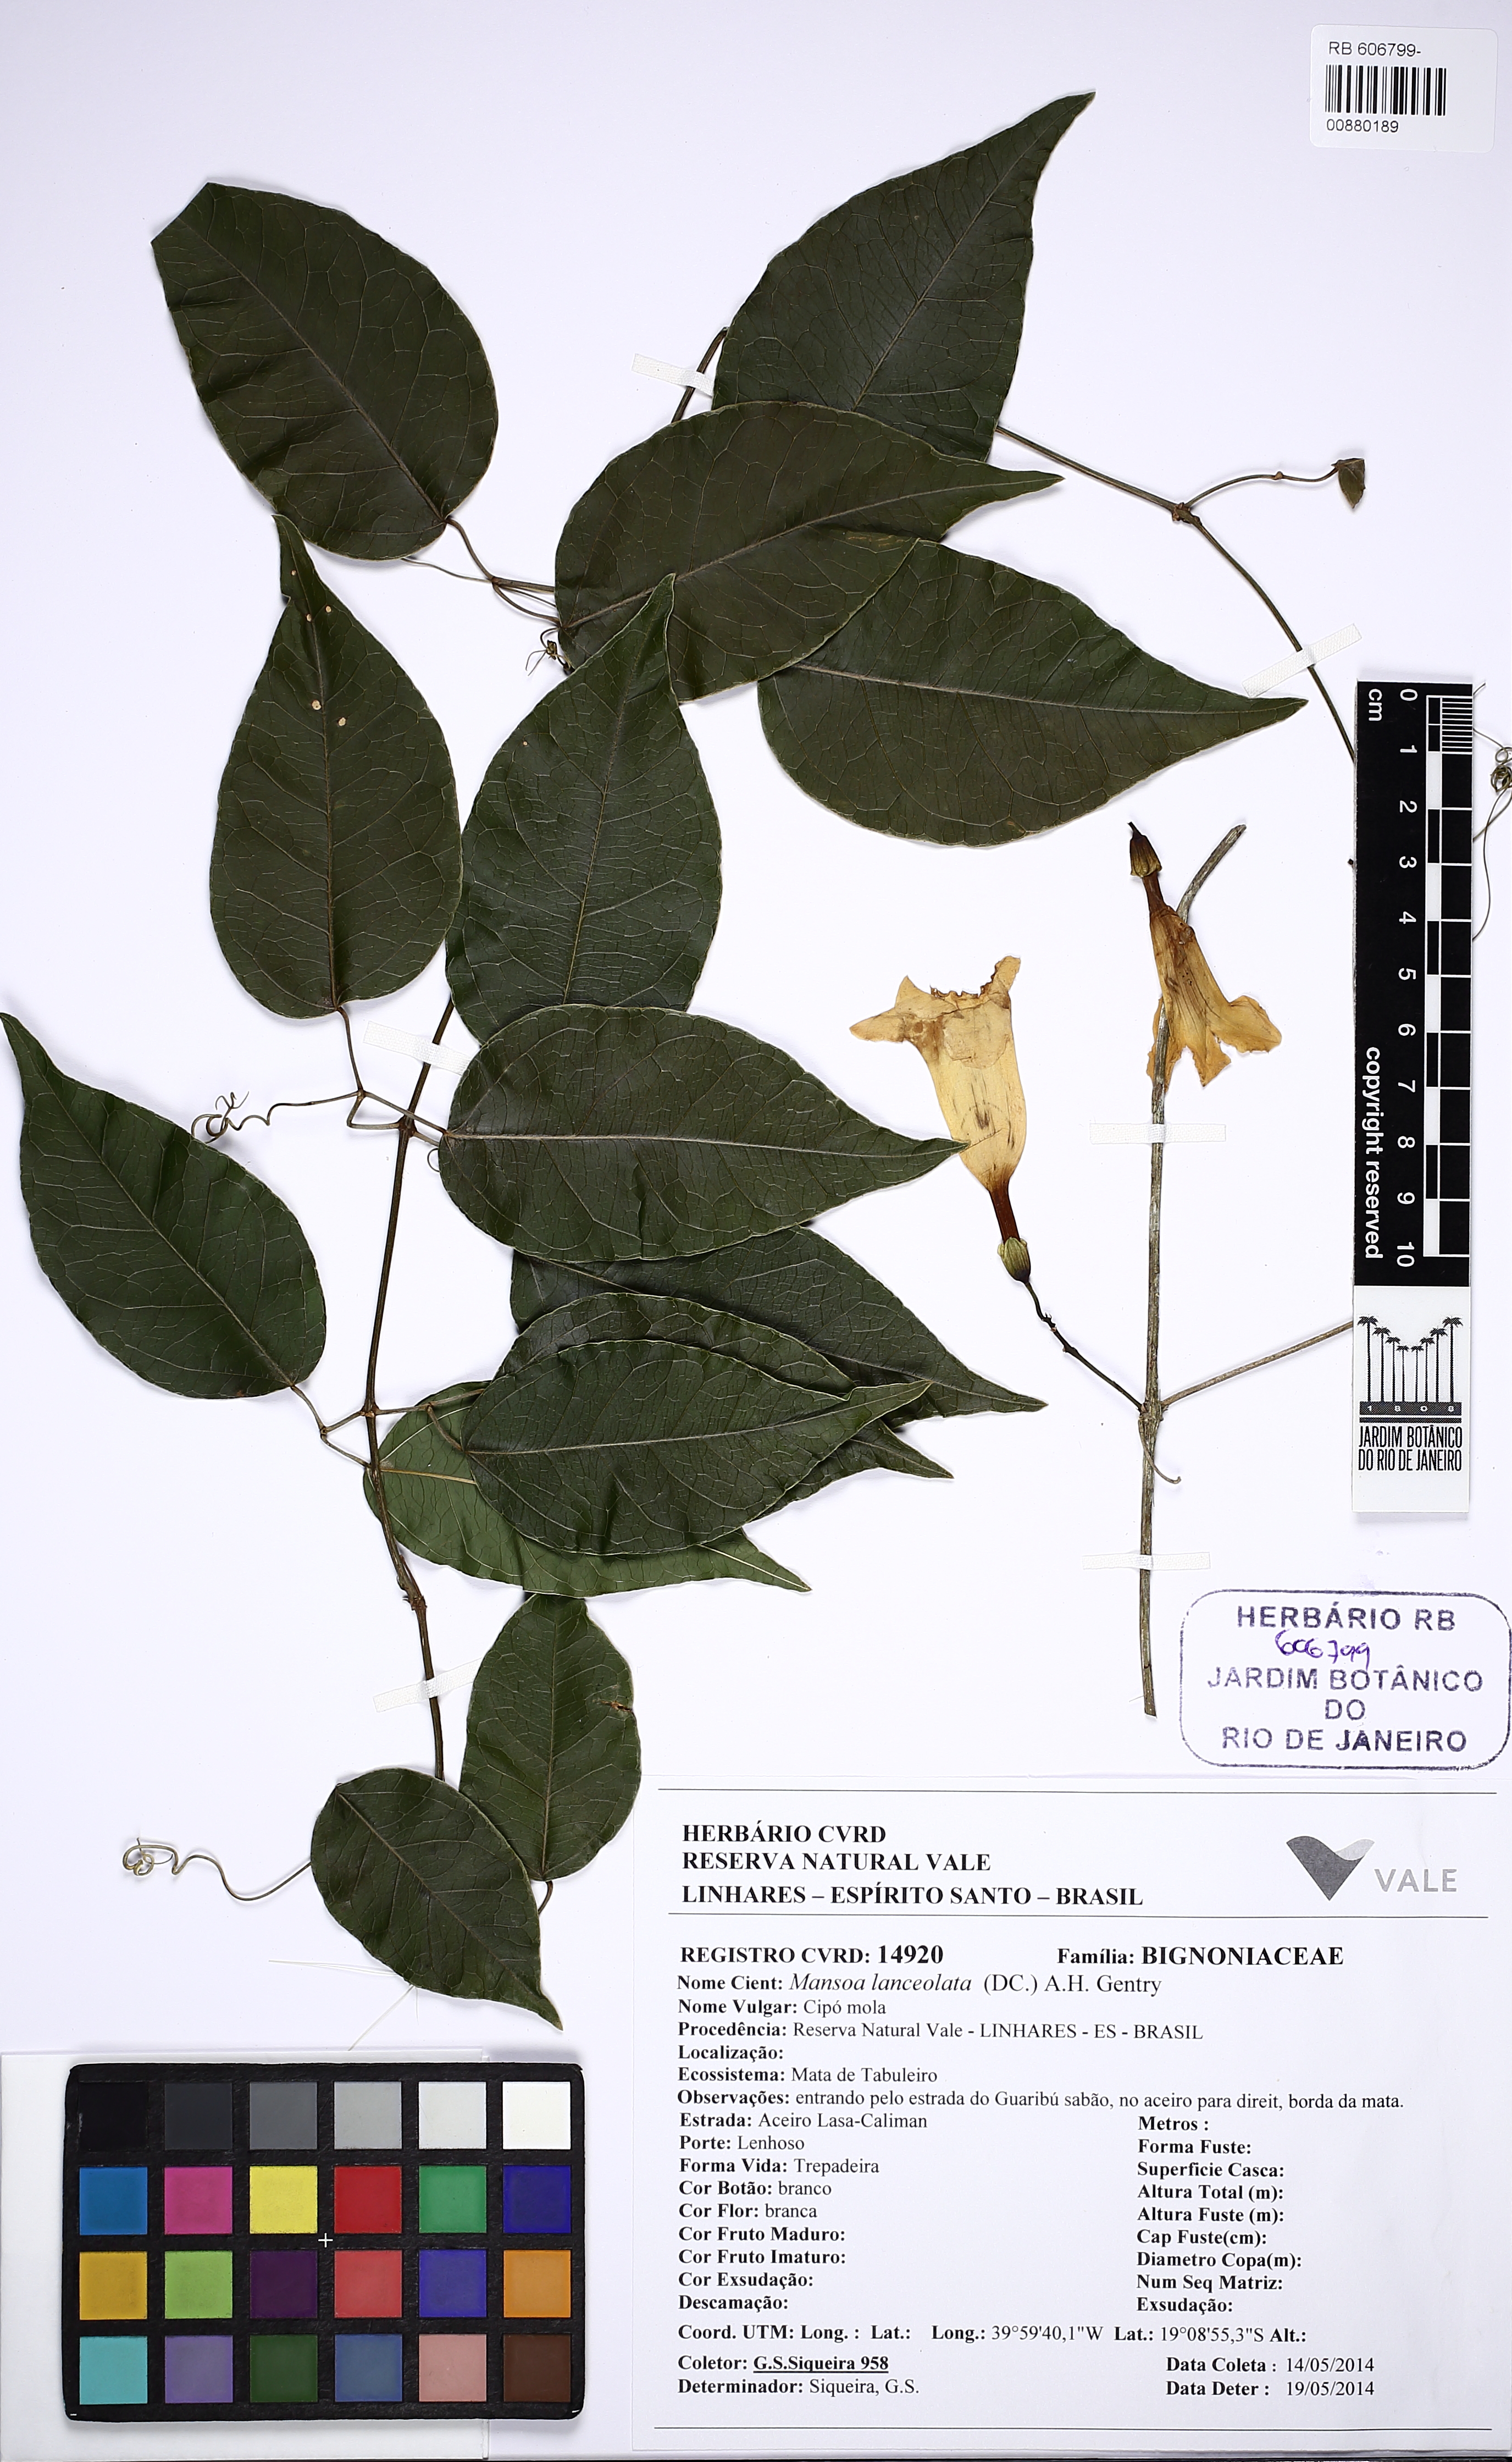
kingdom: Plantae
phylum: Tracheophyta
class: Magnoliopsida
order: Lamiales
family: Bignoniaceae
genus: Mansoa
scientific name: Mansoa lanceolata
